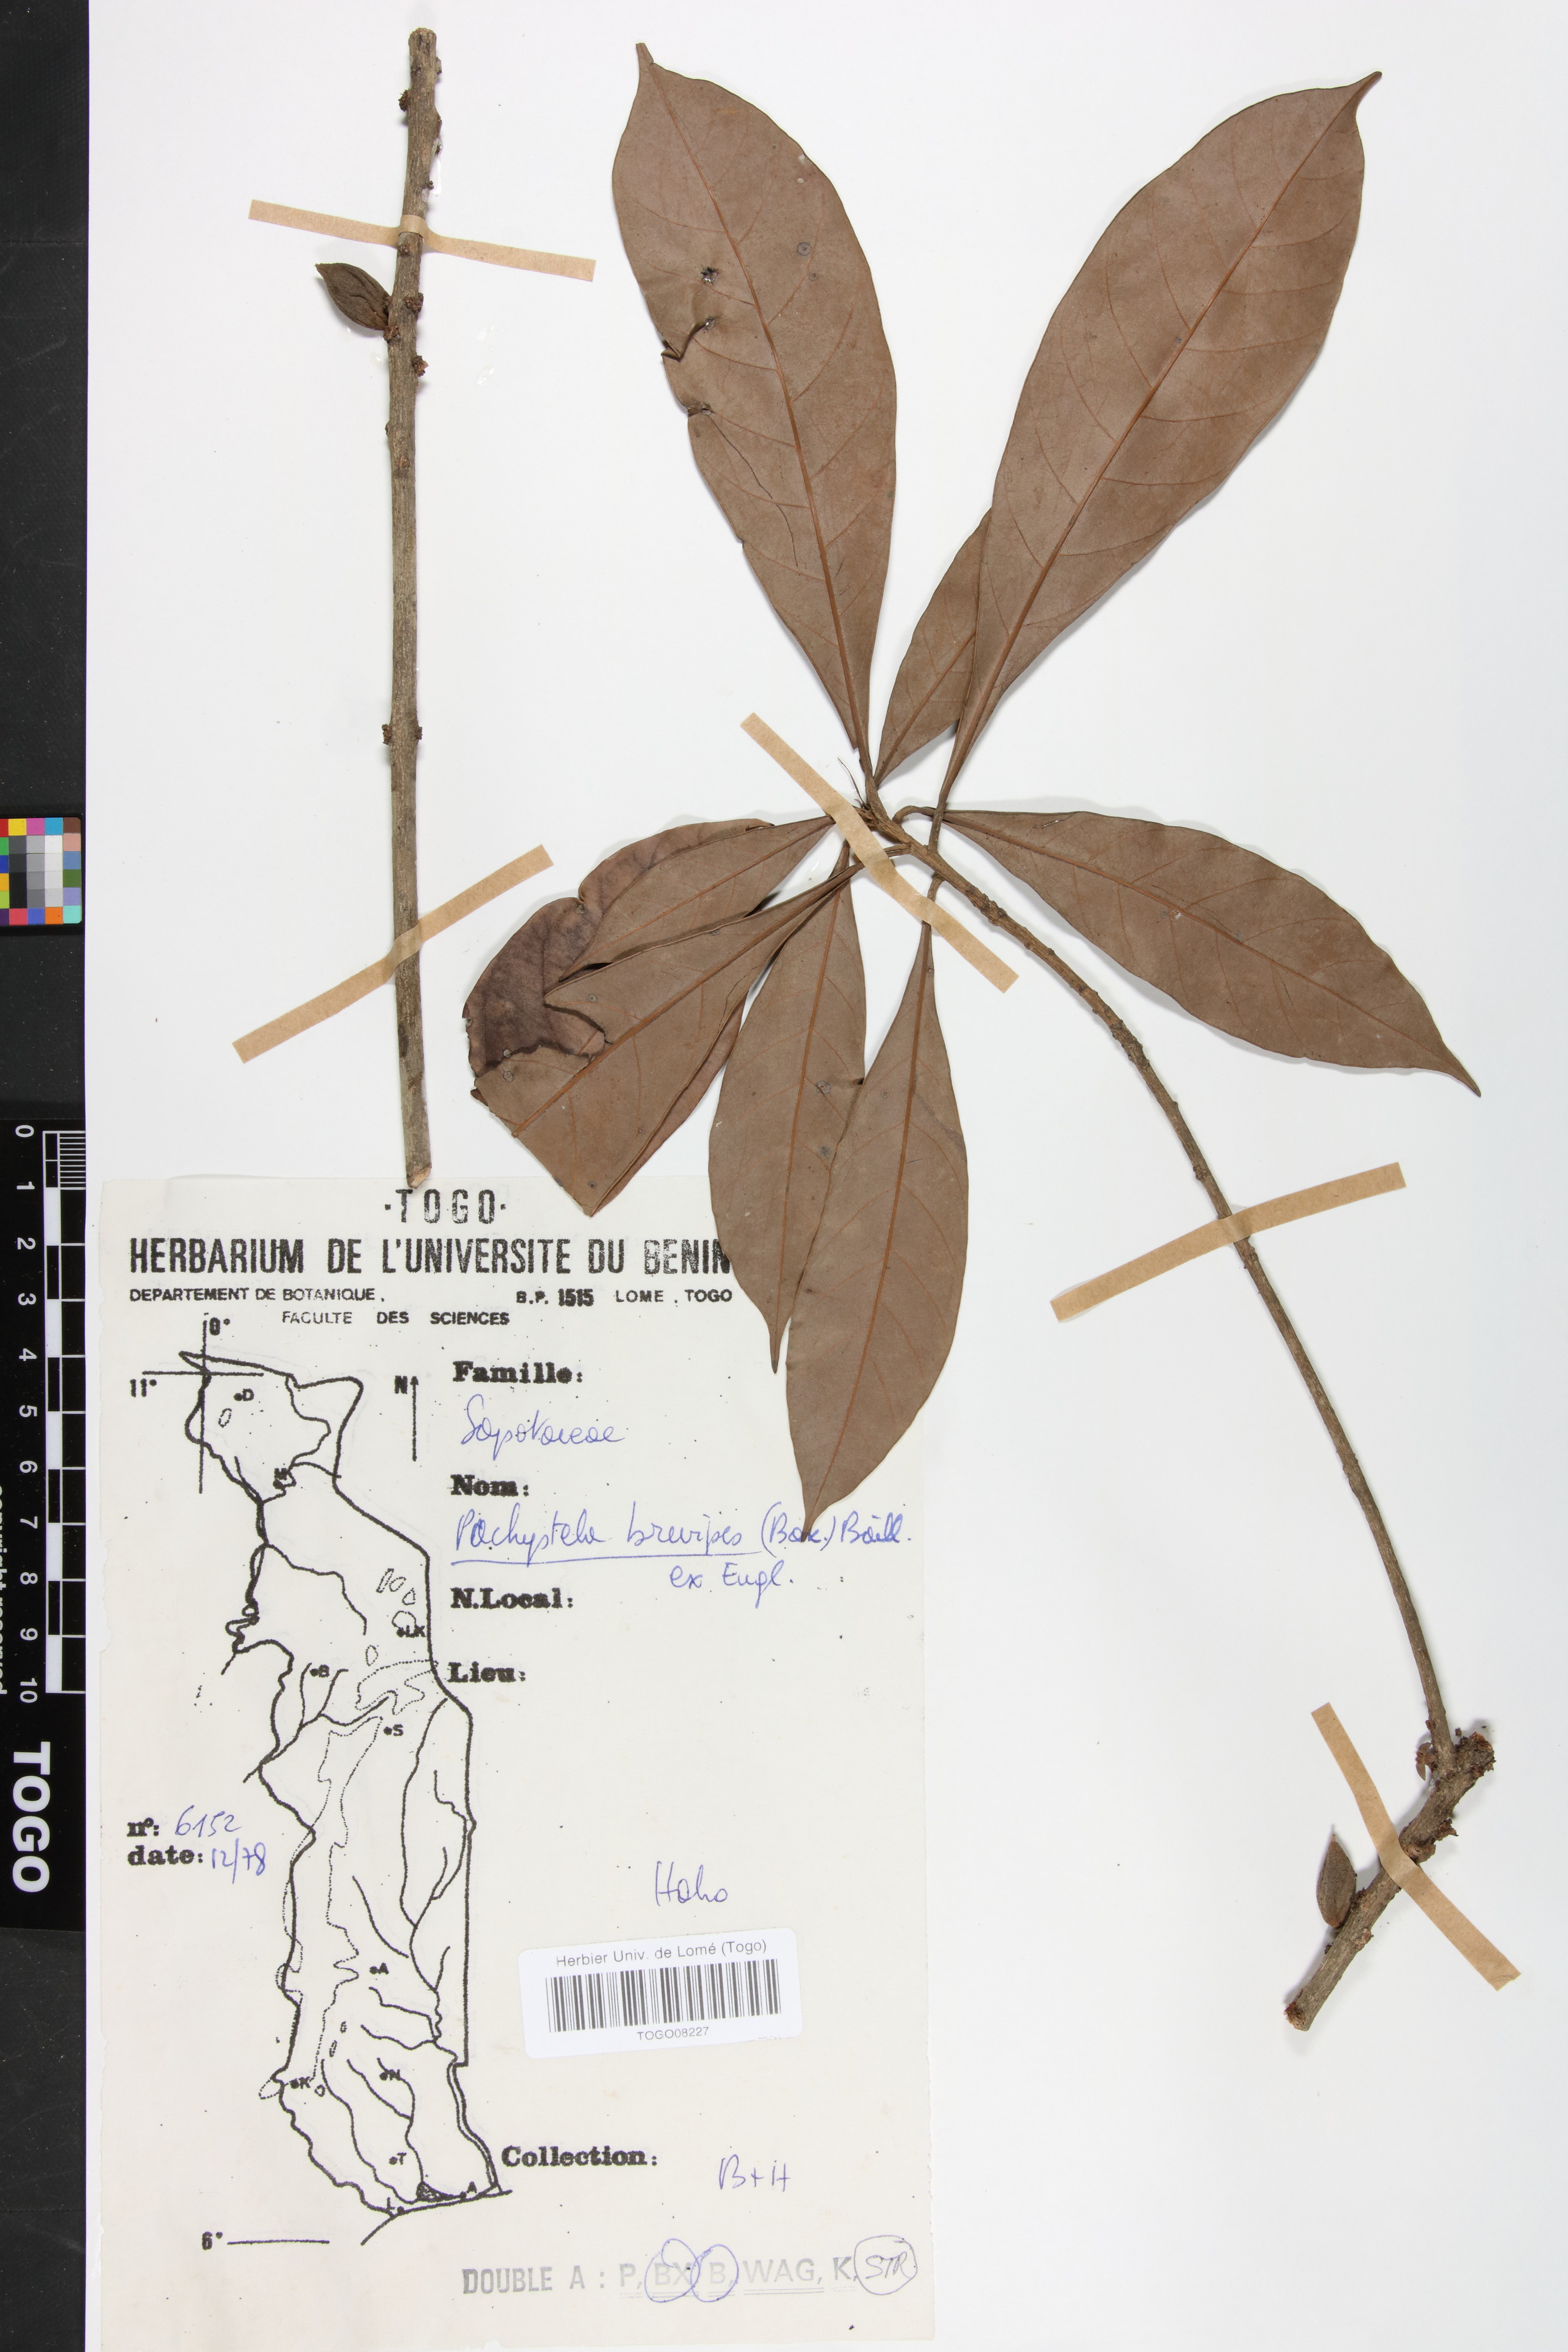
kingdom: Plantae
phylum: Tracheophyta
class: Magnoliopsida
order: Ericales
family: Sapotaceae
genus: Synsepalum
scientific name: Synsepalum brevipes
